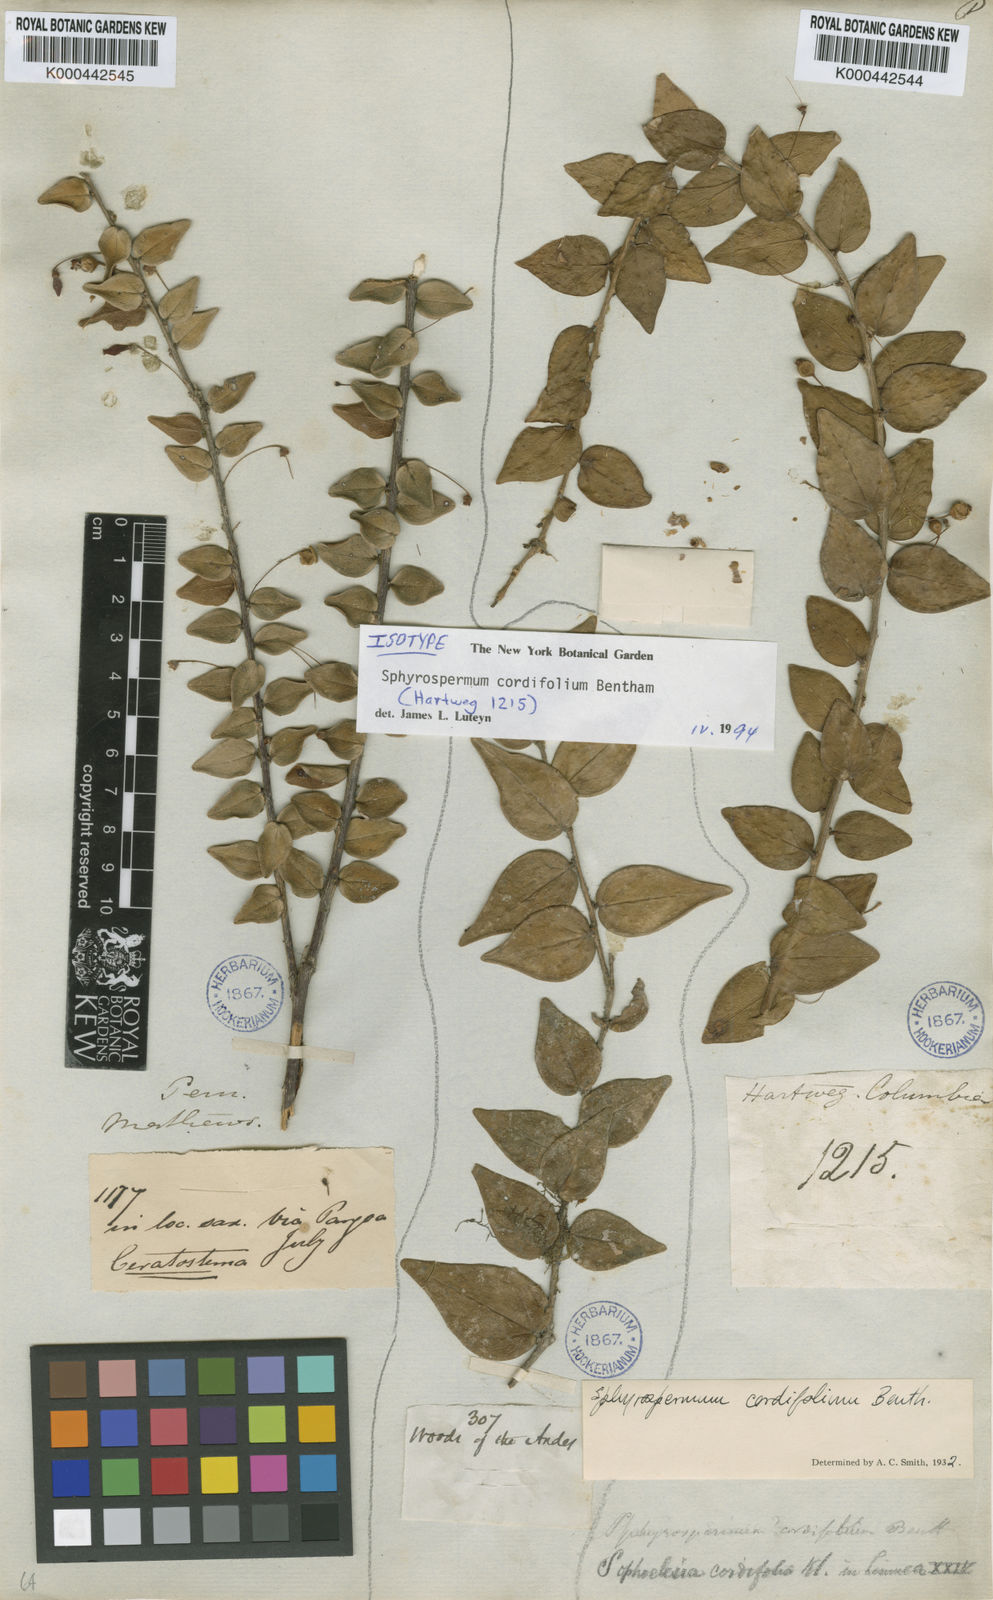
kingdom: Plantae
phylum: Tracheophyta
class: Magnoliopsida
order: Ericales
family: Ericaceae
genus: Sphyrospermum
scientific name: Sphyrospermum cordifolium
